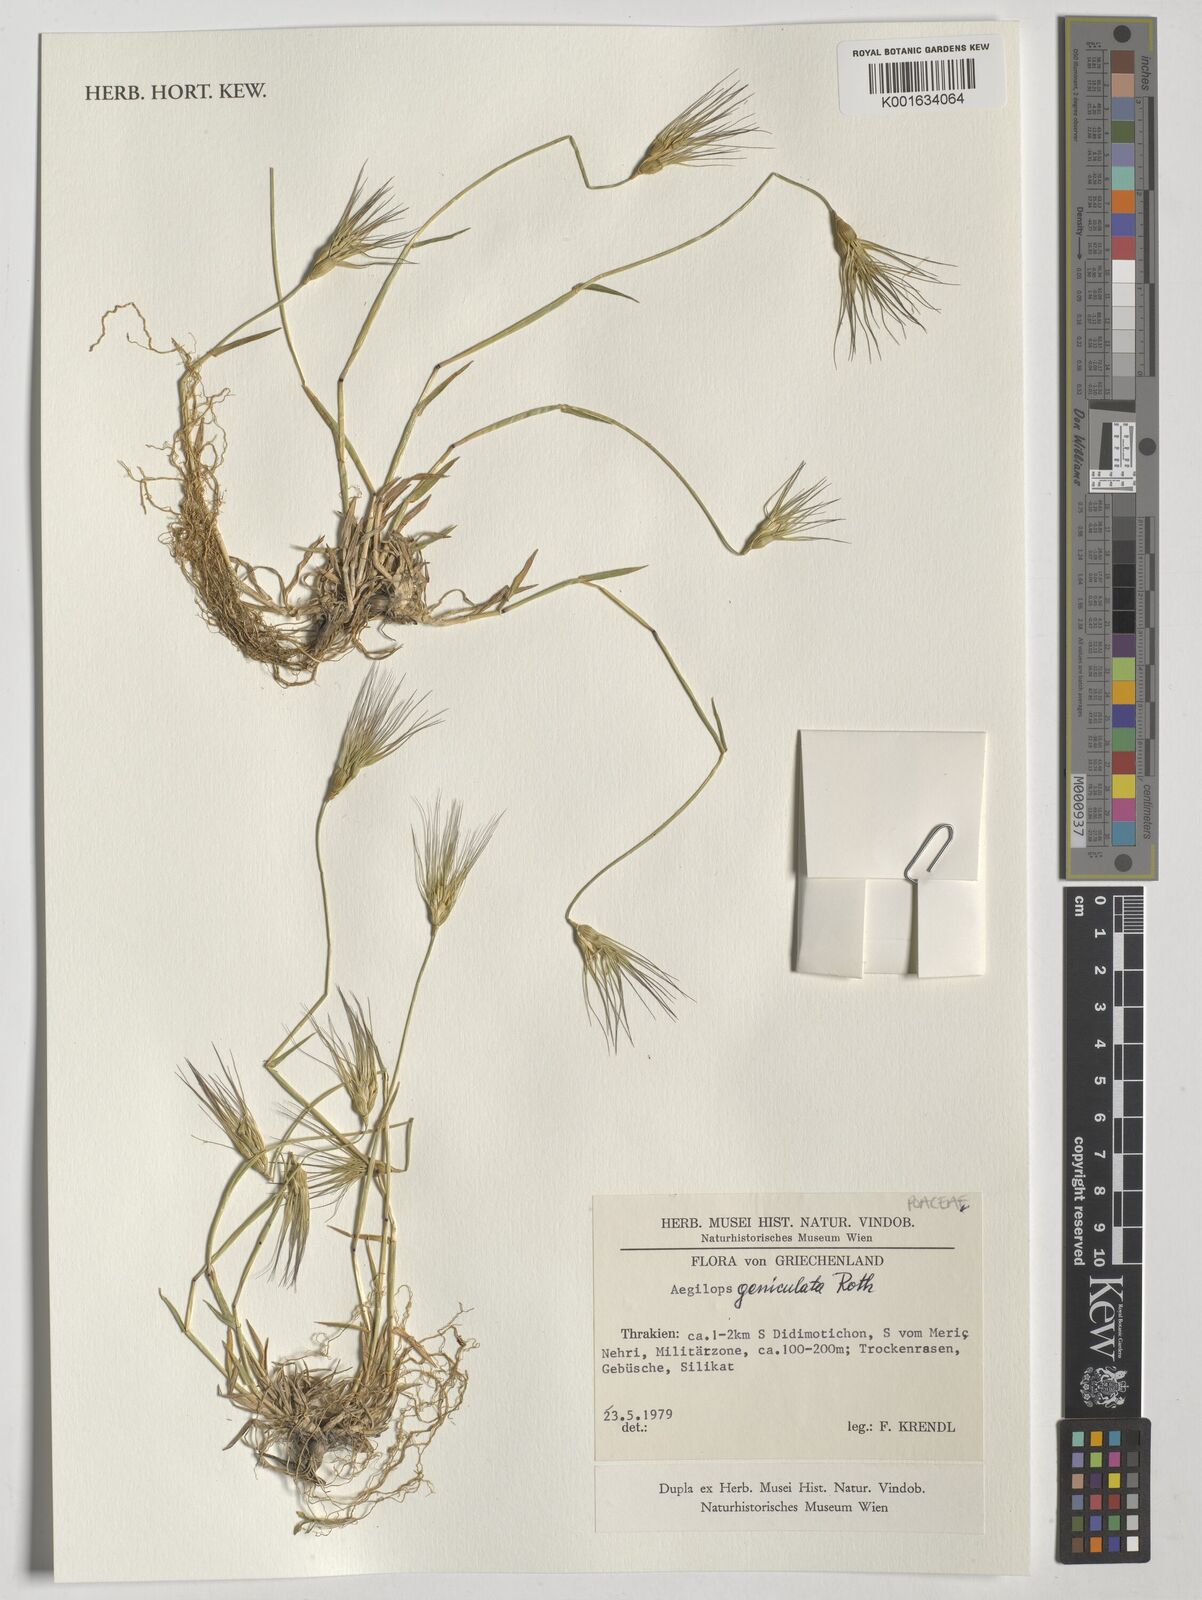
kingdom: Plantae
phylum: Tracheophyta
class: Liliopsida
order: Poales
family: Poaceae
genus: Aegilops
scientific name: Aegilops geniculata
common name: Ovate goat grass
